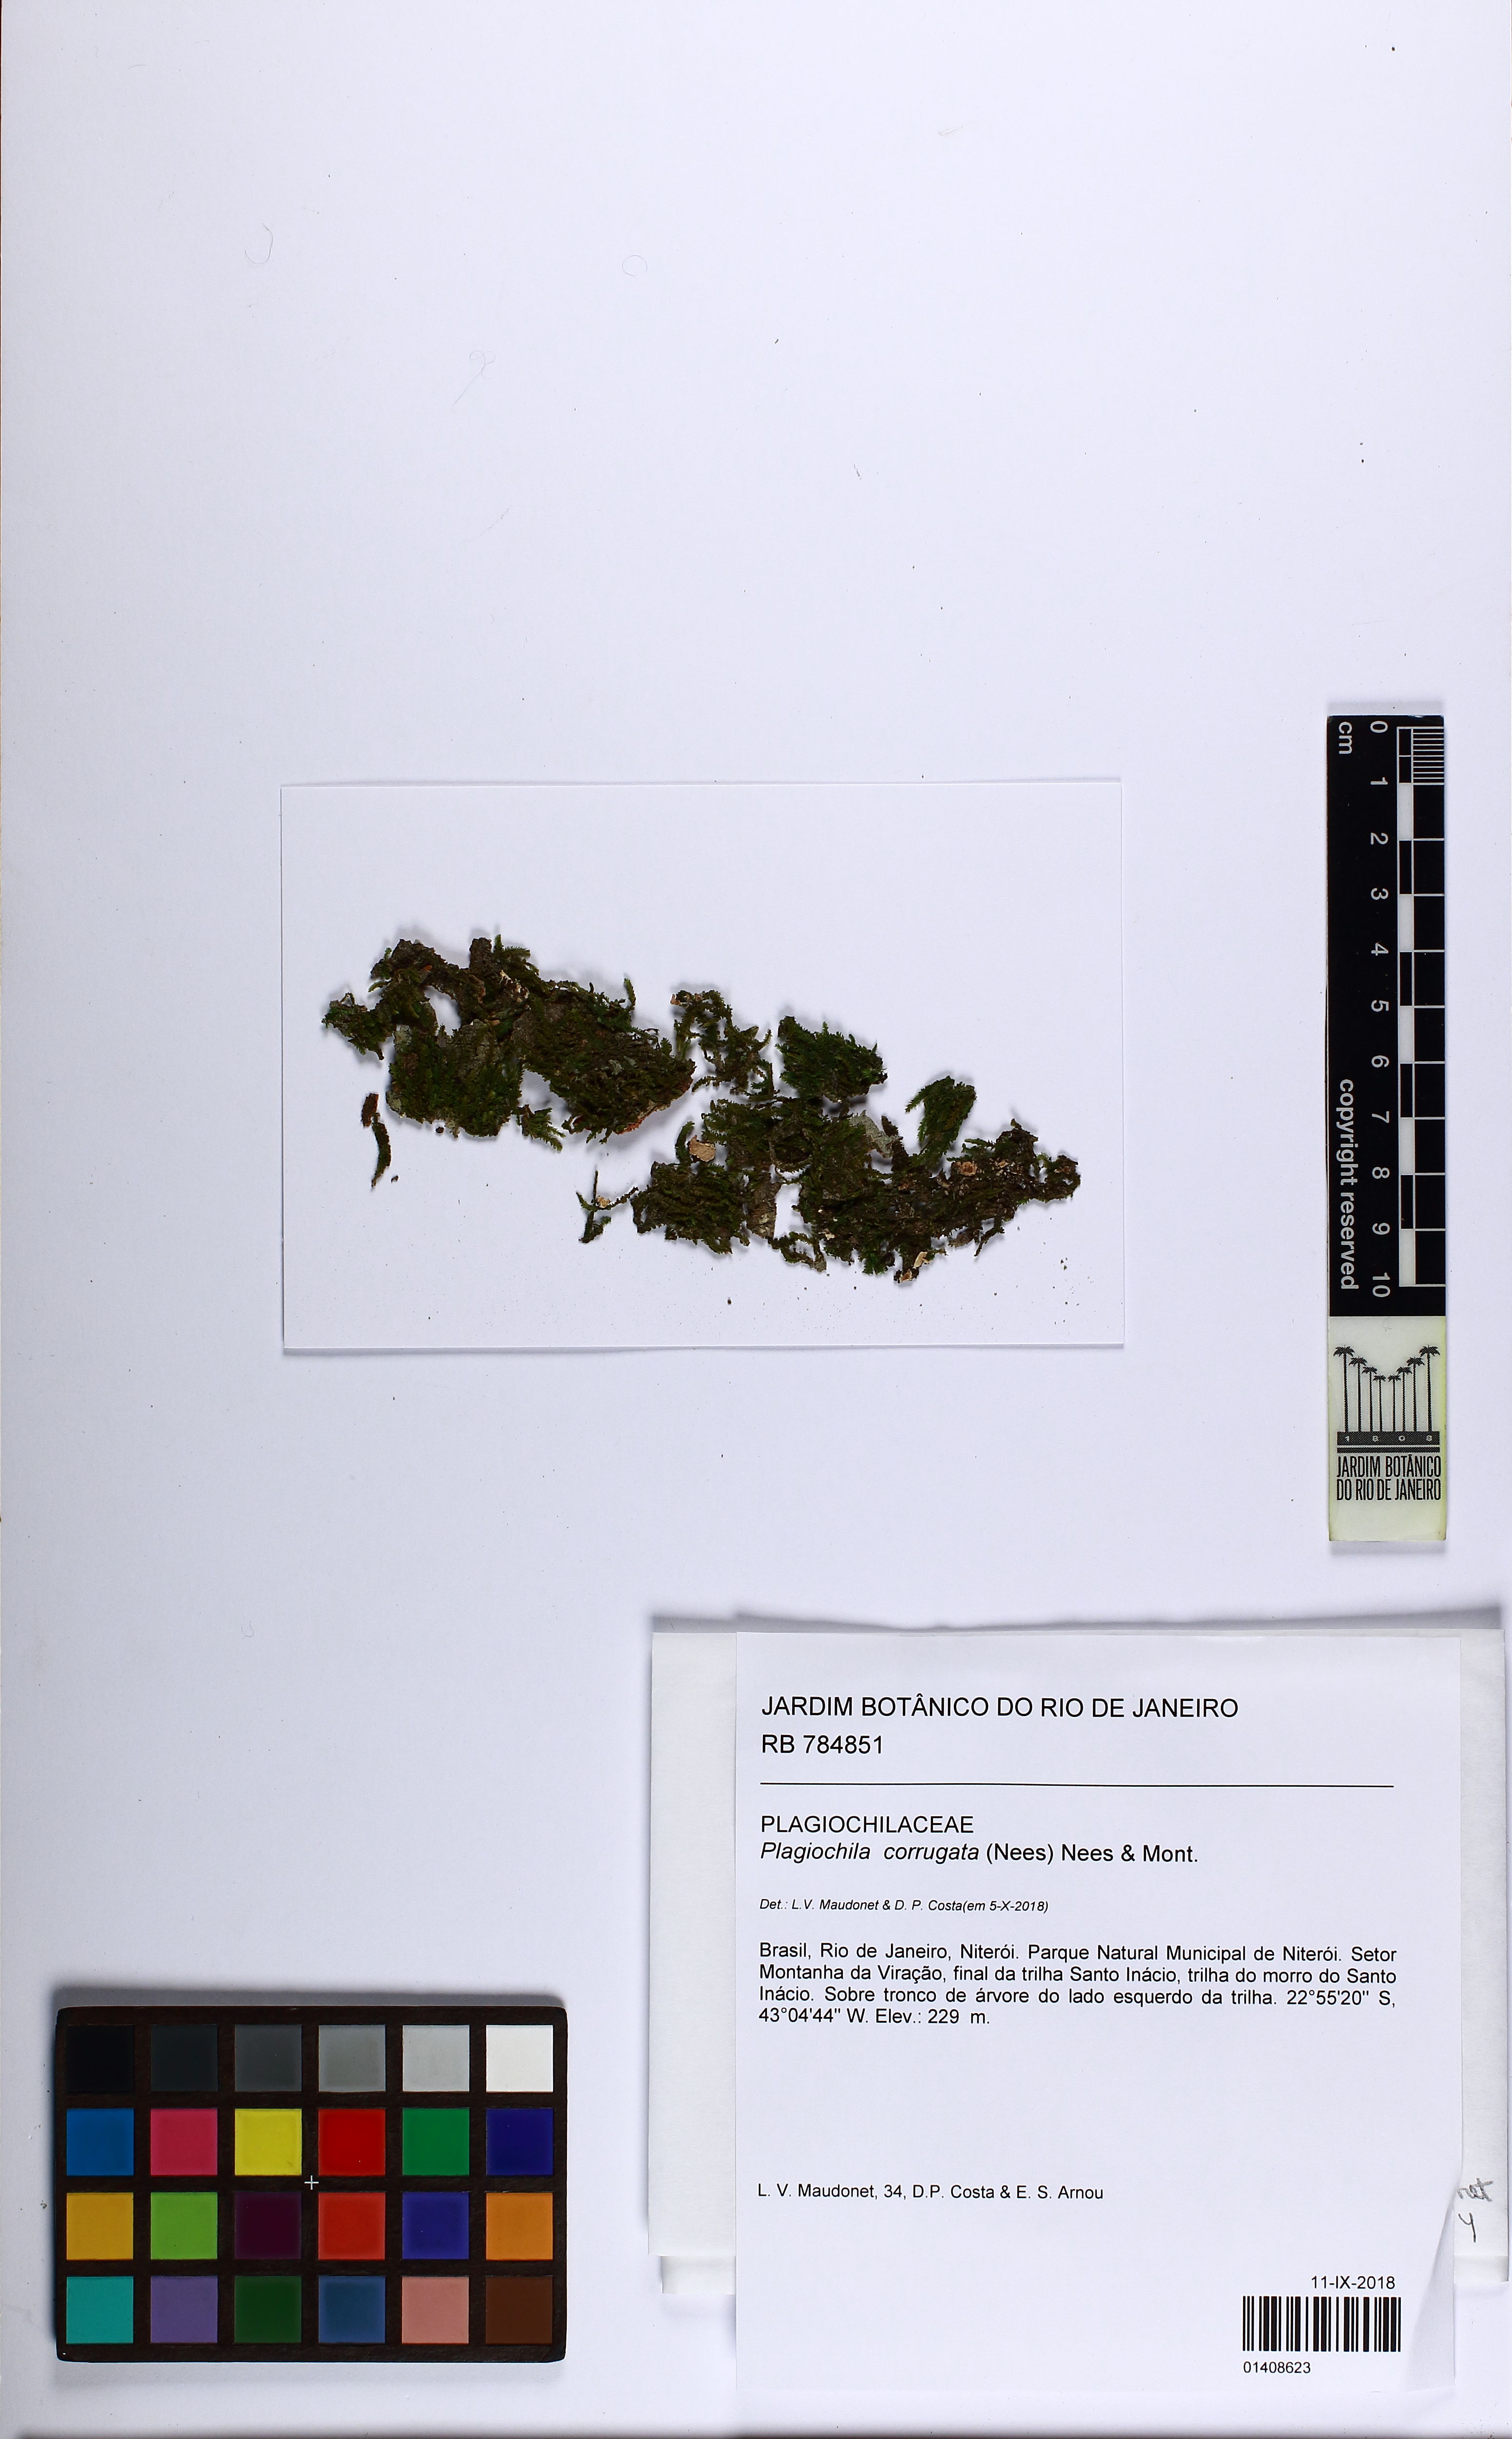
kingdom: Plantae
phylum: Marchantiophyta
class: Jungermanniopsida
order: Jungermanniales
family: Plagiochilaceae
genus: Plagiochila
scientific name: Plagiochila corrugata
